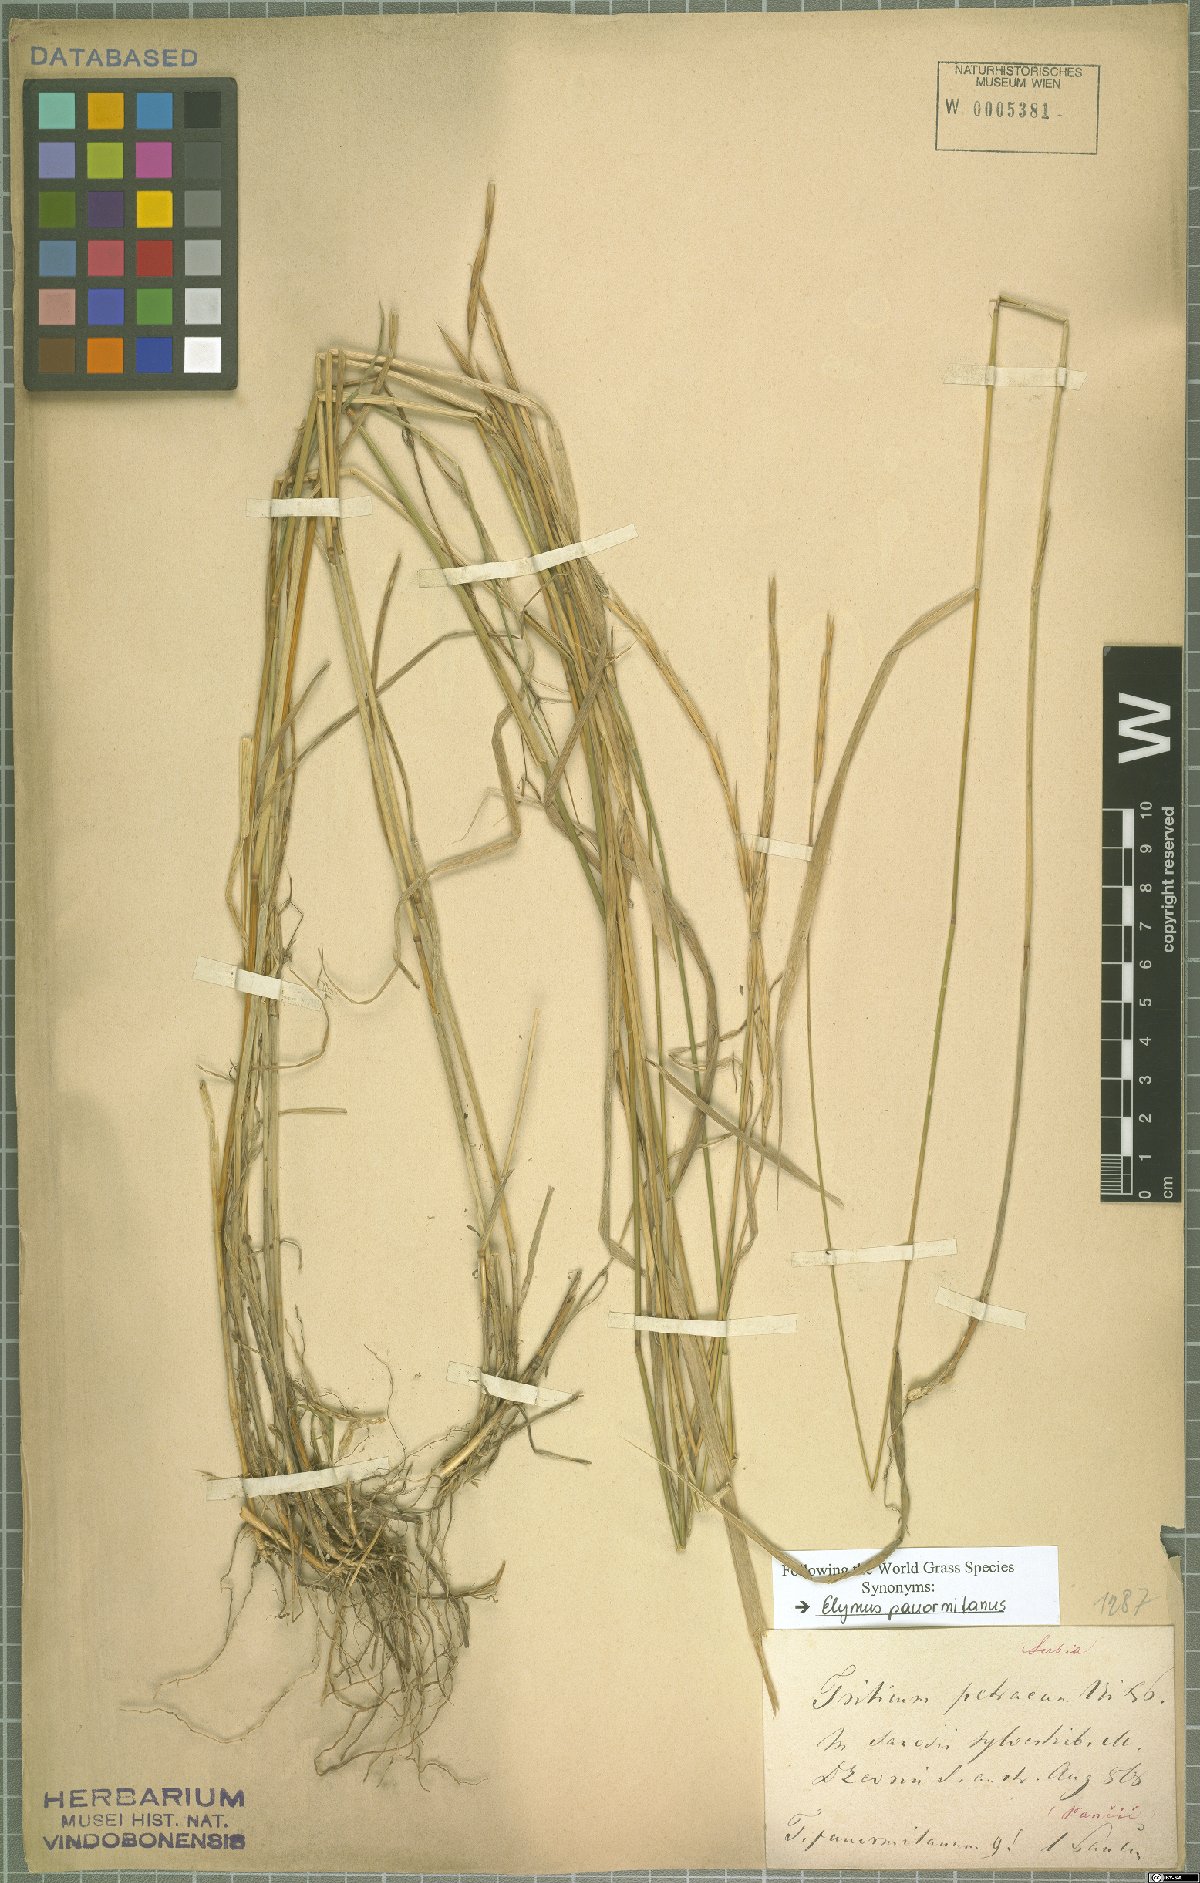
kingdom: Plantae
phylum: Tracheophyta
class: Liliopsida
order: Poales
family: Poaceae
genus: Elymus
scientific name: Elymus panormitanus
